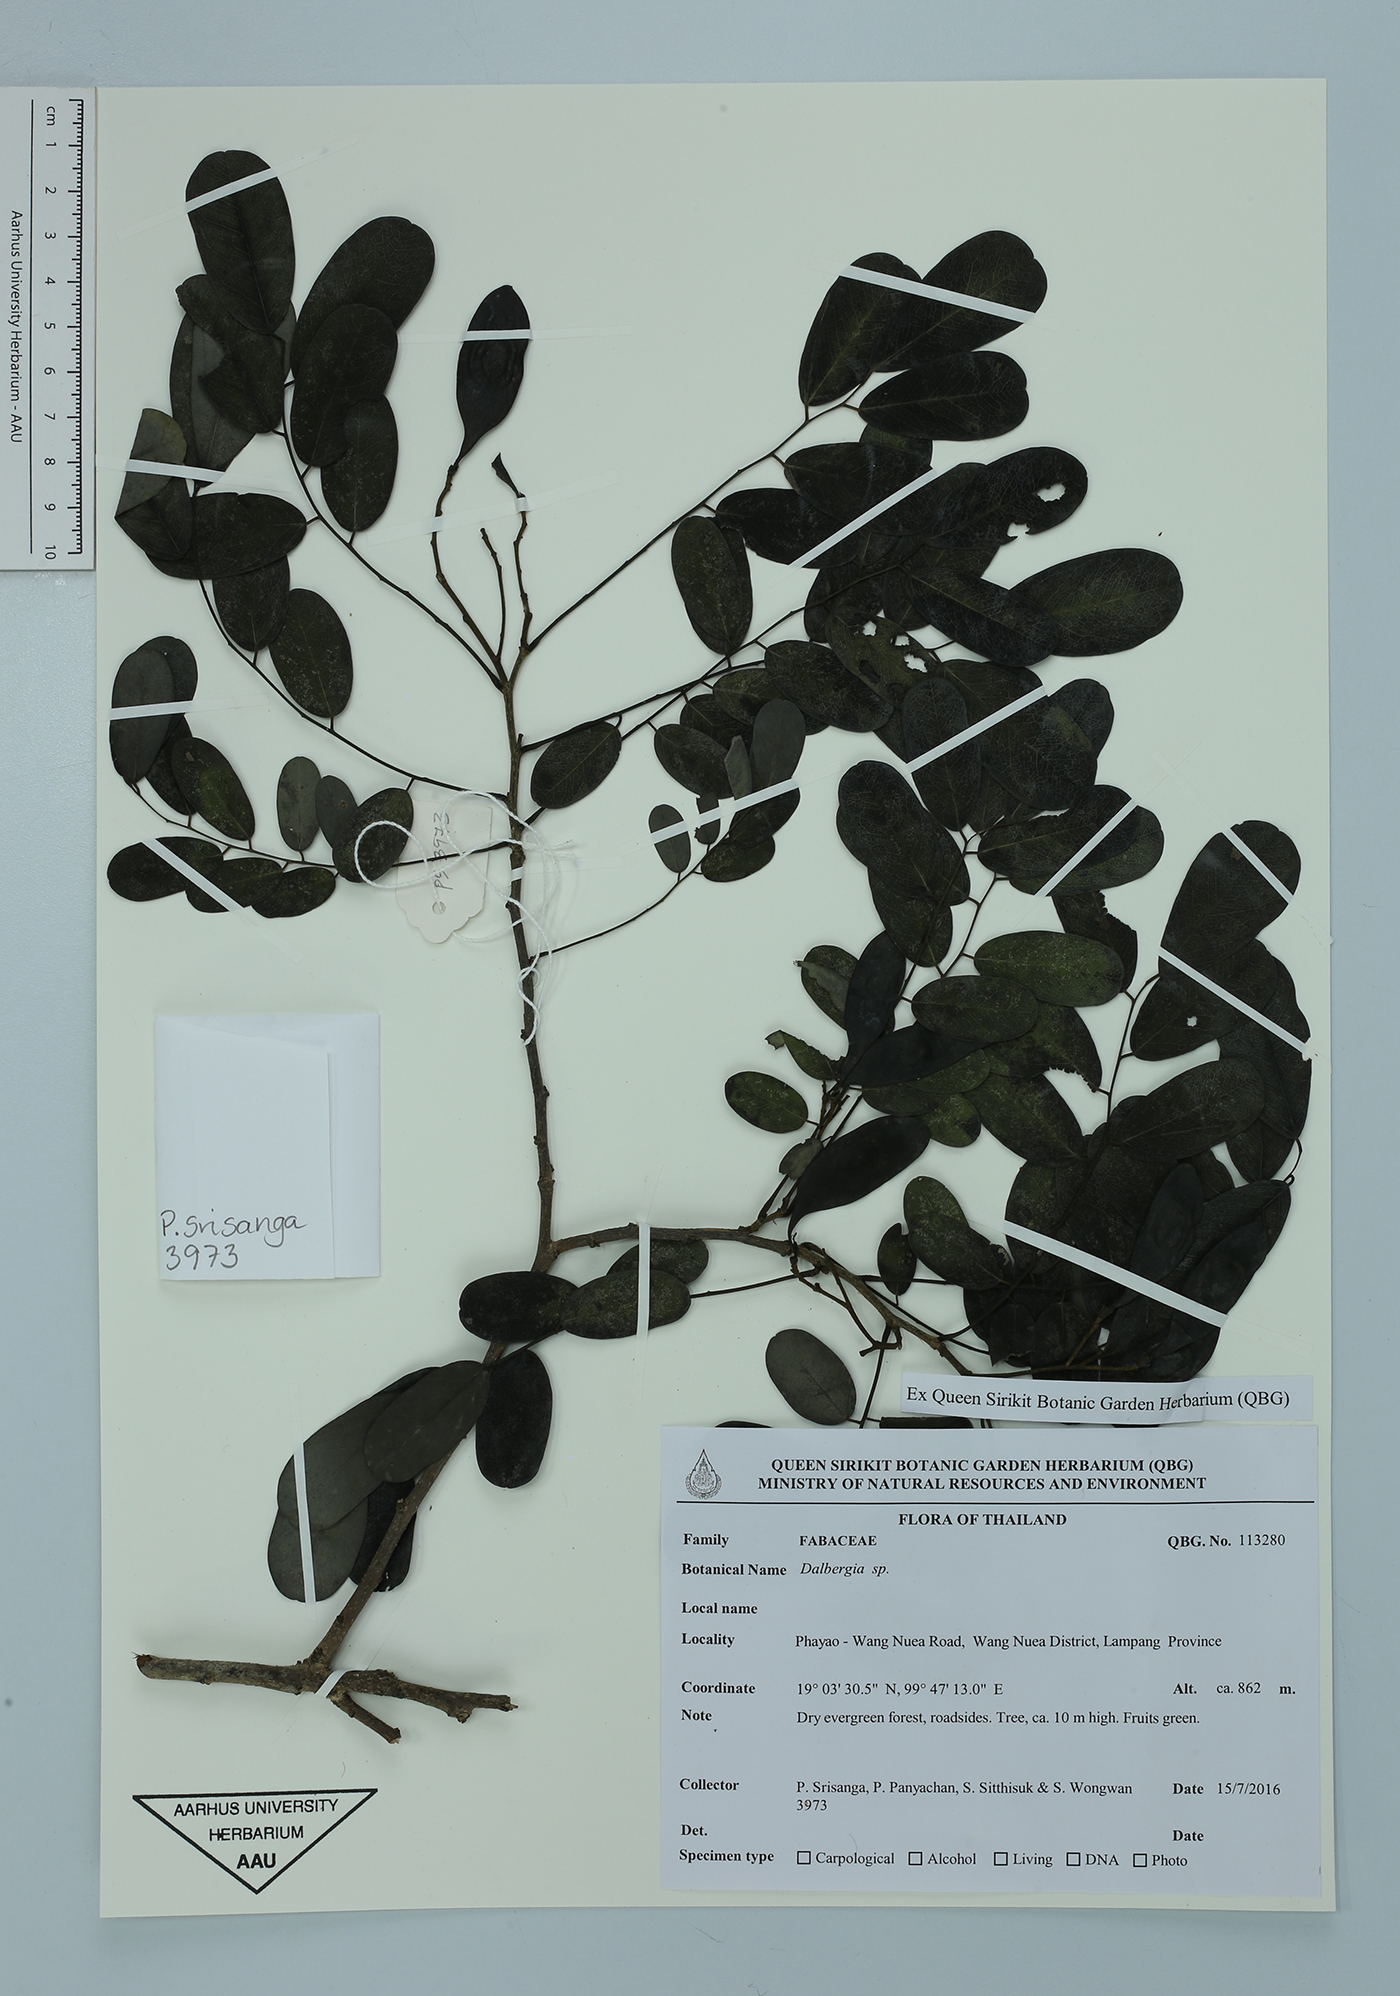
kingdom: Plantae
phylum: Tracheophyta
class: Magnoliopsida
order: Fabales
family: Fabaceae
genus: Dalbergia
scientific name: Dalbergia
